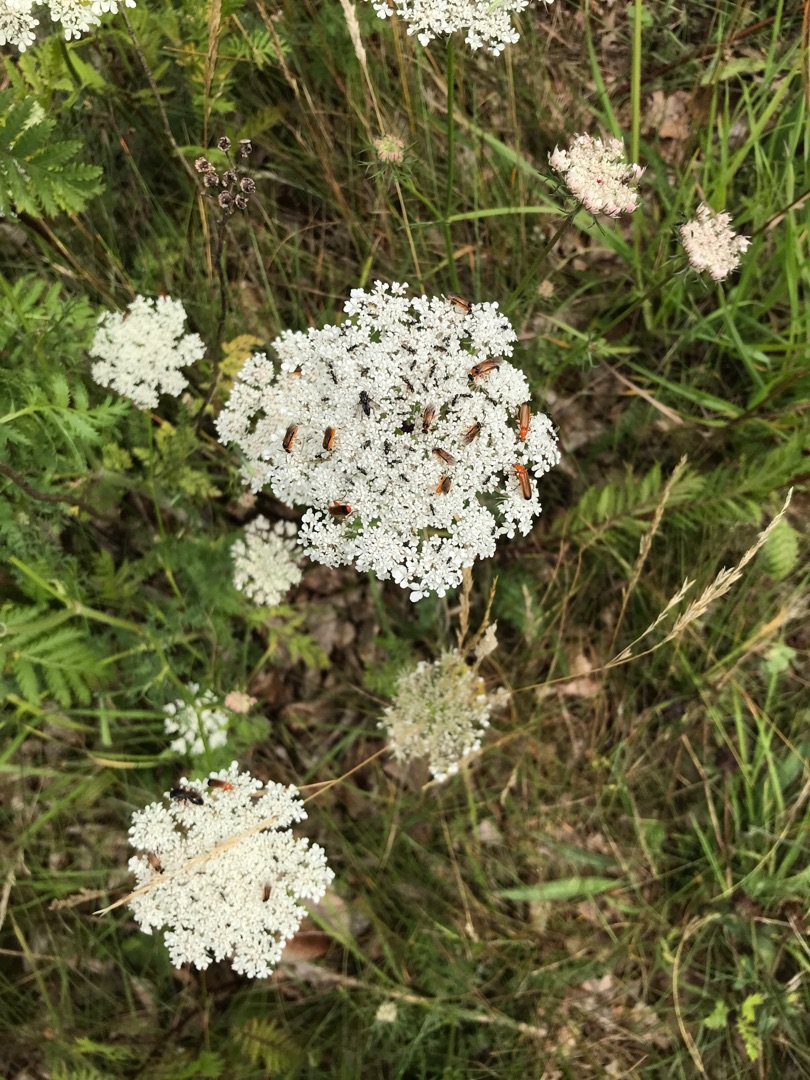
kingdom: Plantae
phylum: Tracheophyta
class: Magnoliopsida
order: Apiales
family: Apiaceae
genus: Daucus
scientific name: Daucus carota
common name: Gulerod
